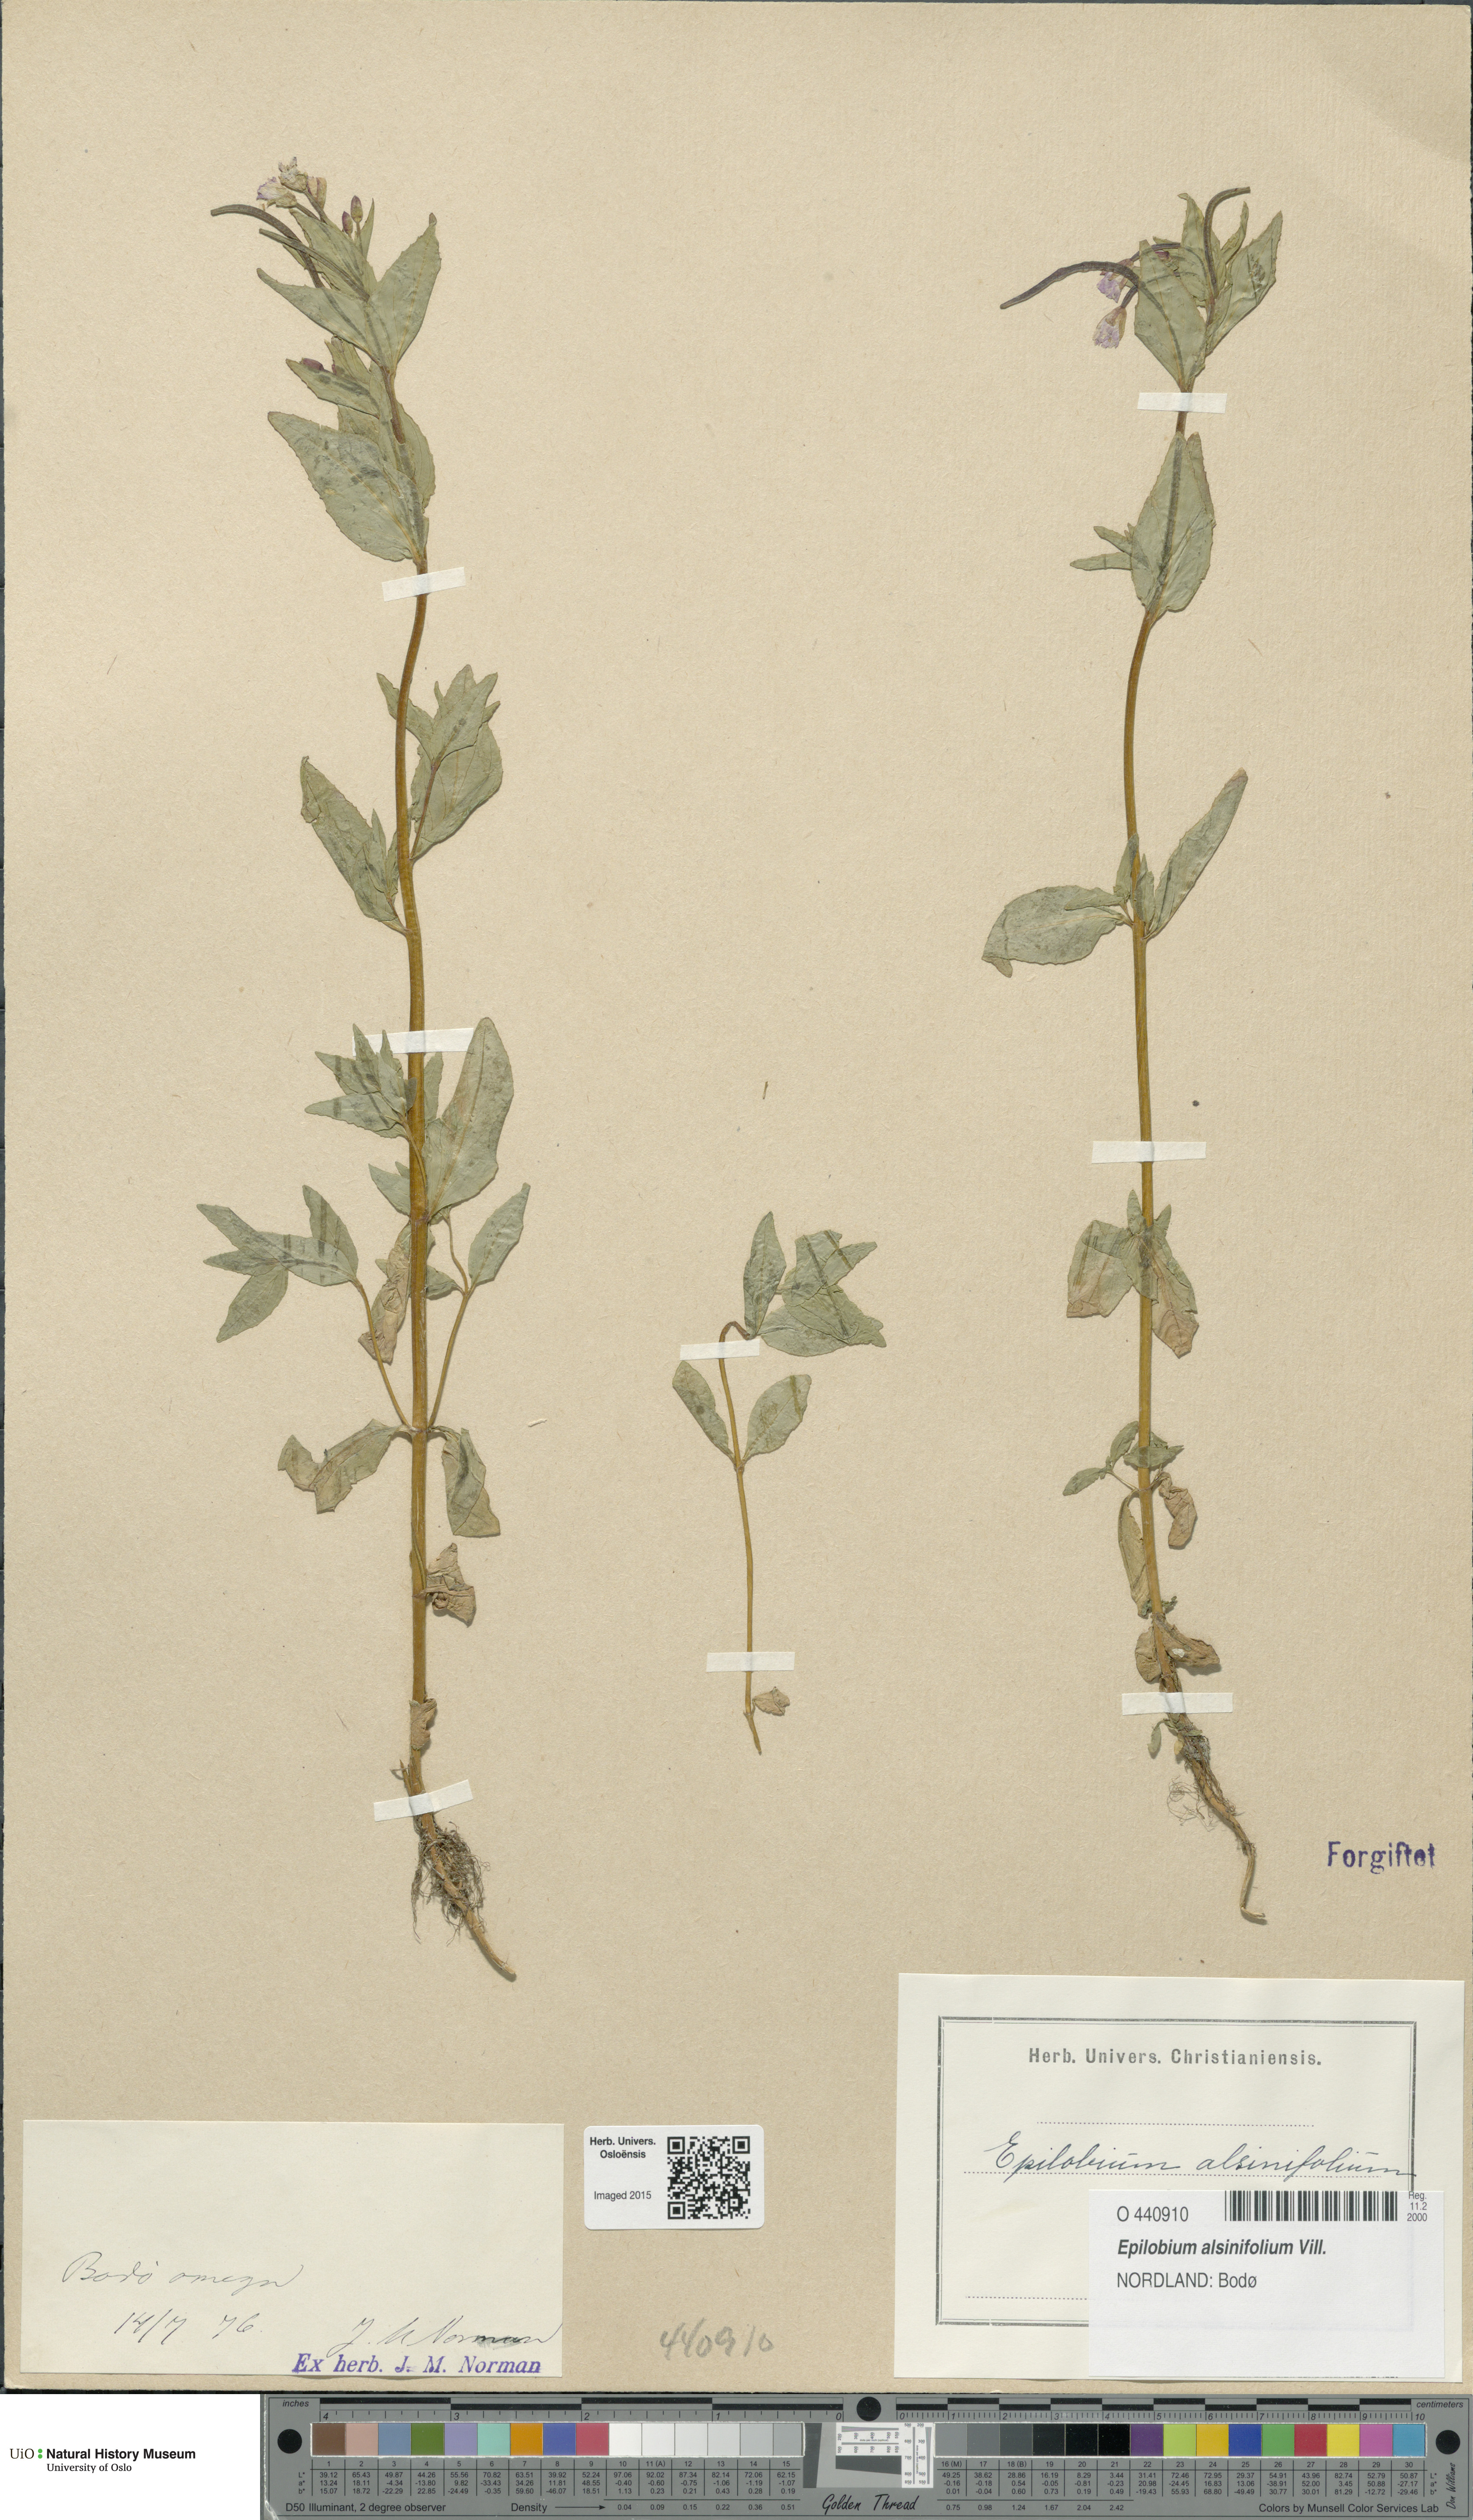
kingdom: Plantae
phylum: Tracheophyta
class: Magnoliopsida
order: Myrtales
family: Onagraceae
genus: Epilobium
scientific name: Epilobium alsinifolium
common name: Chickweed willowherb
